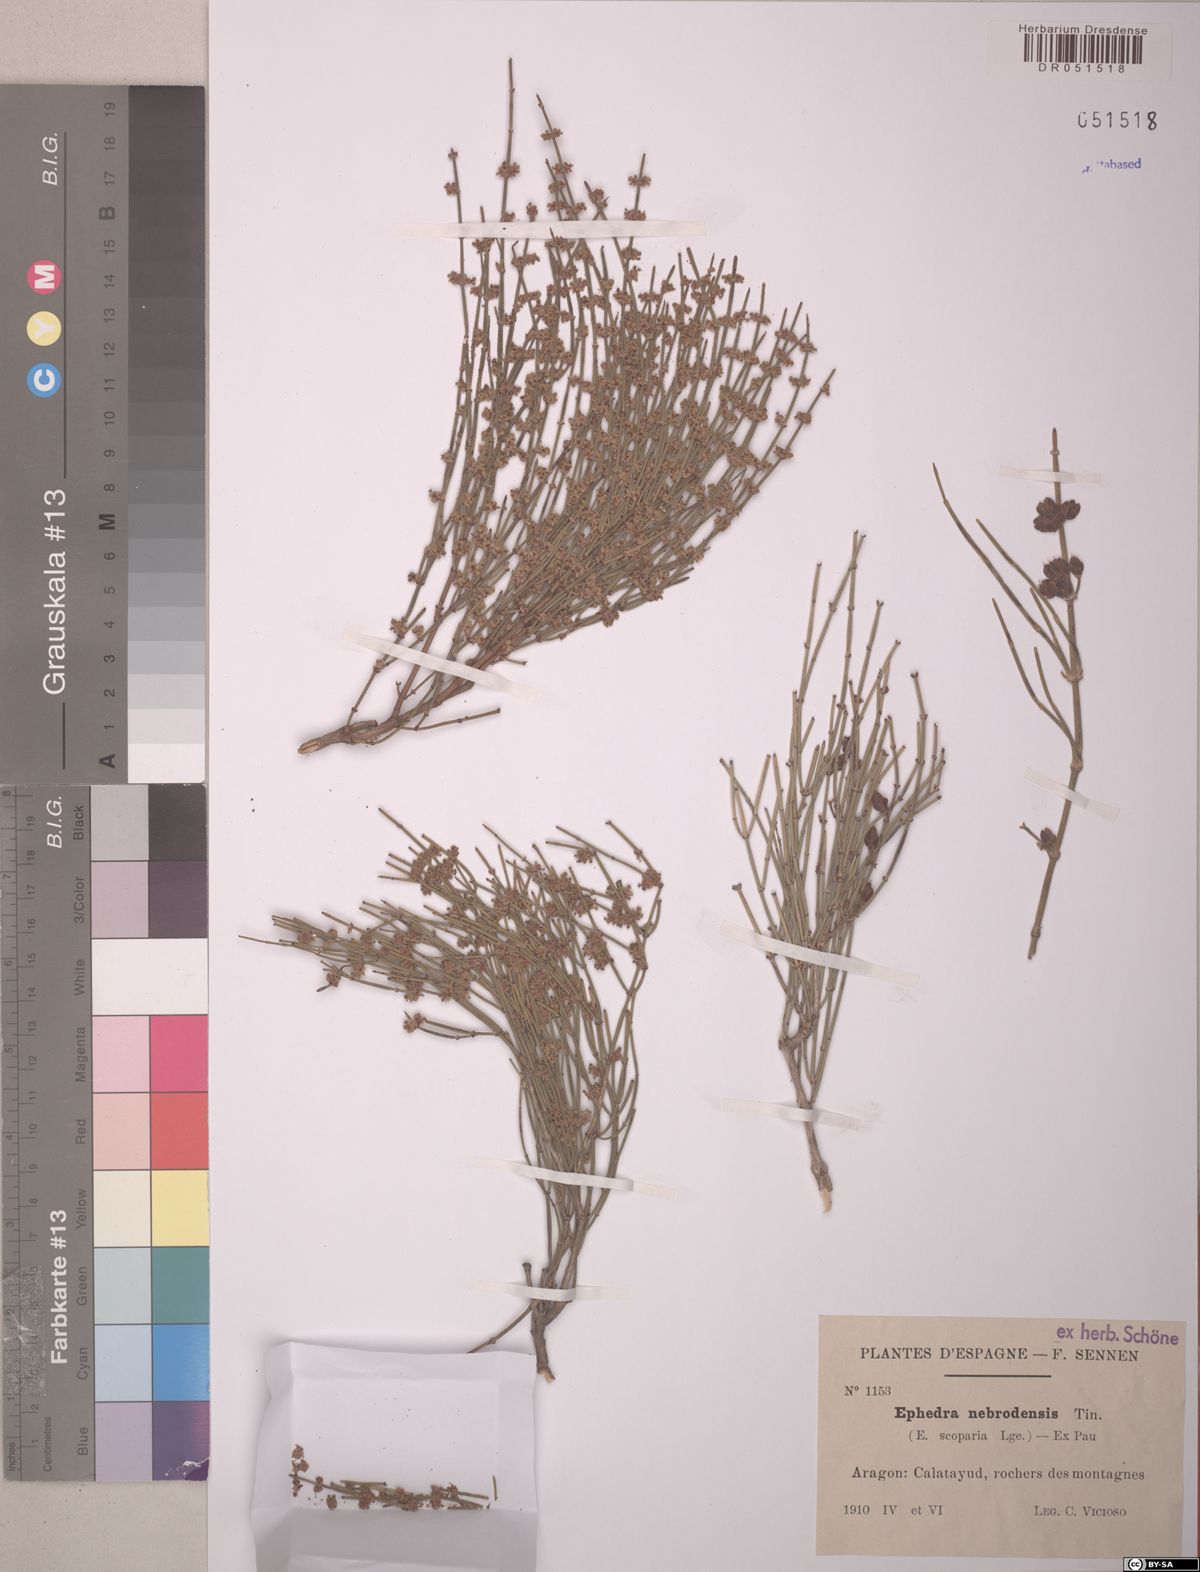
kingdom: Plantae
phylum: Tracheophyta
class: Gnetopsida
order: Ephedrales
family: Ephedraceae
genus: Ephedra
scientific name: Ephedra foeminea
